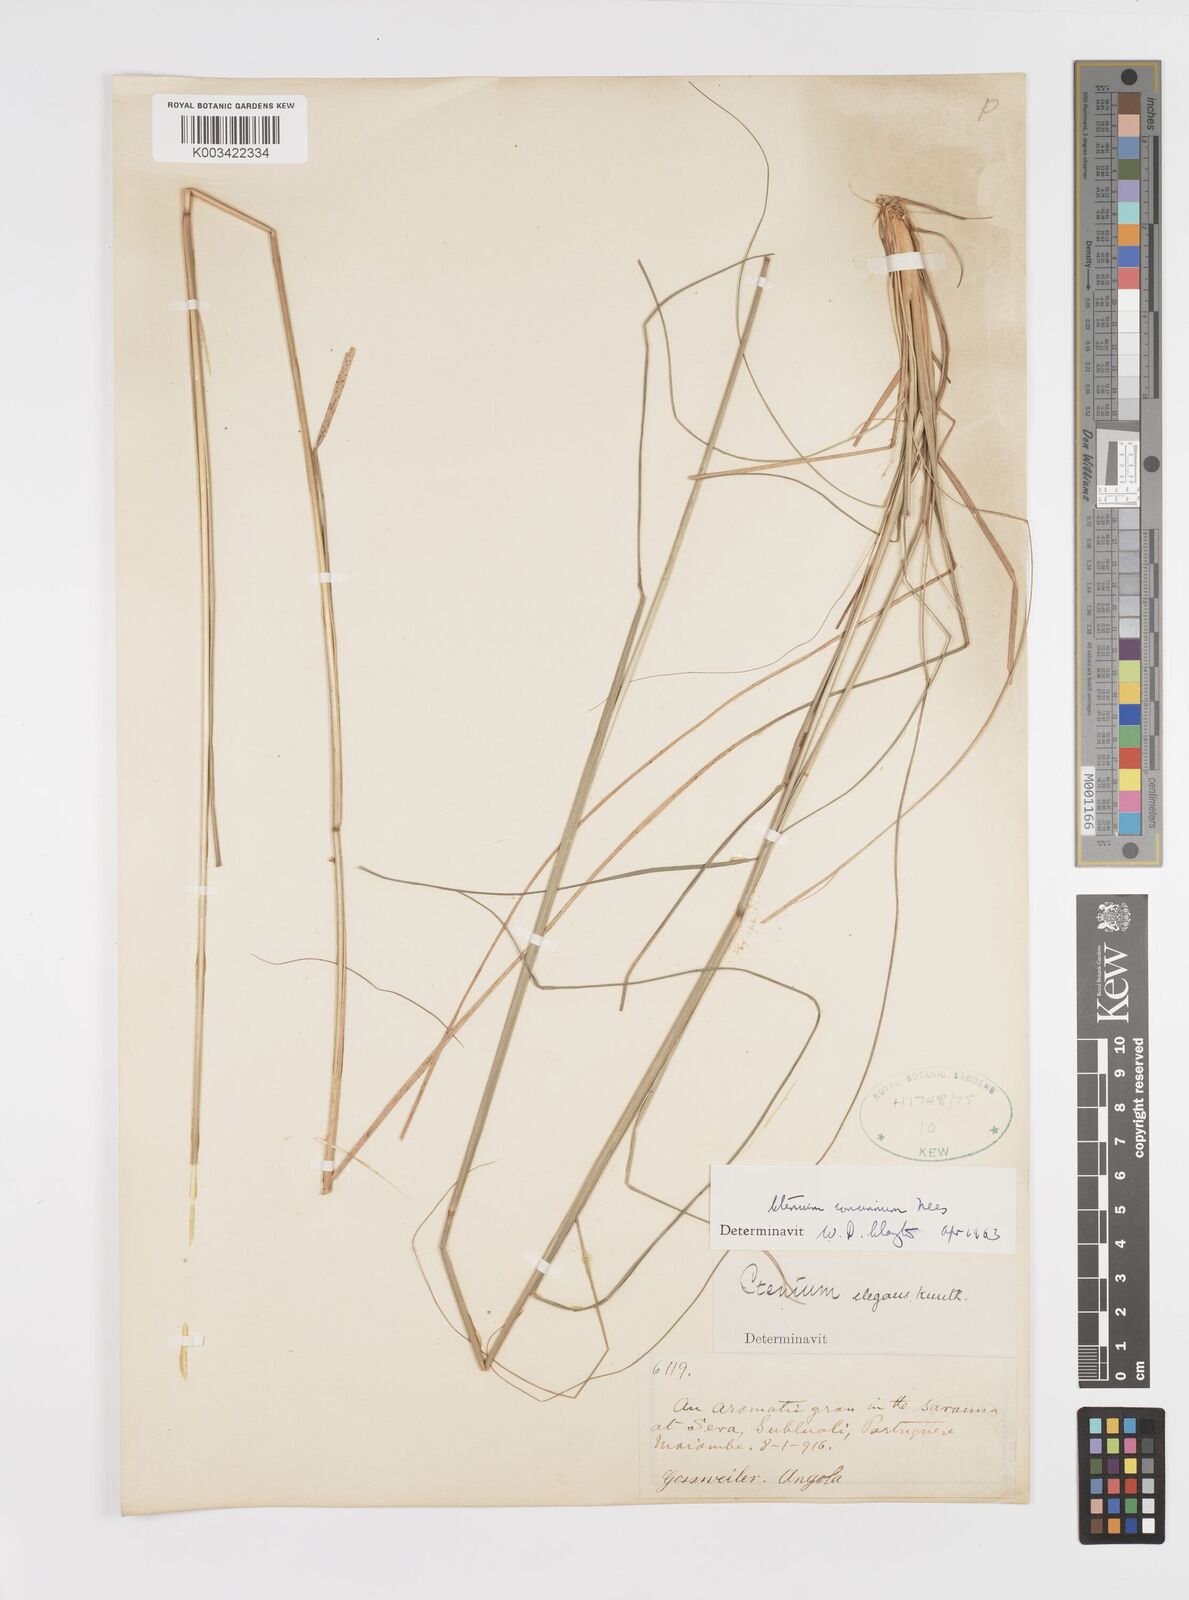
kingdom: Plantae
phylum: Tracheophyta
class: Liliopsida
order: Poales
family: Poaceae
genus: Ctenium
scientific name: Ctenium concinnum
